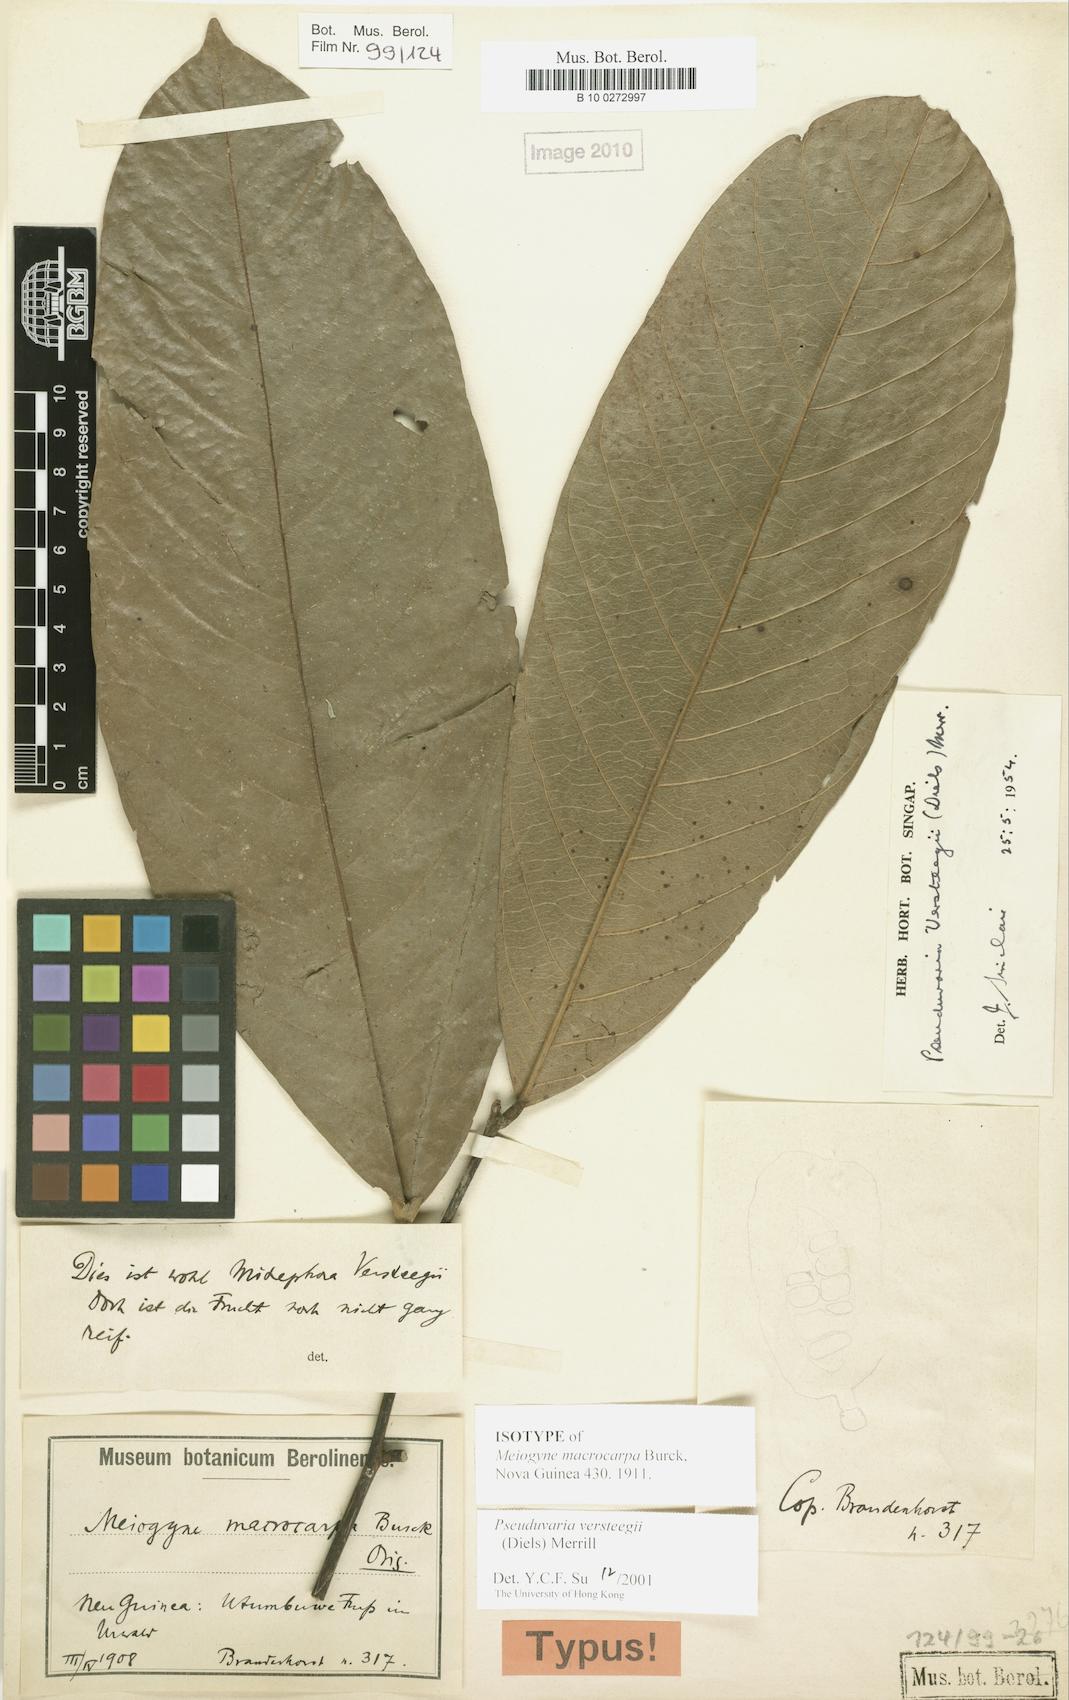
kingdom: Plantae
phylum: Tracheophyta
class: Magnoliopsida
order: Magnoliales
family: Annonaceae
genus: Pseuduvaria
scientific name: Pseuduvaria macrocarpa
